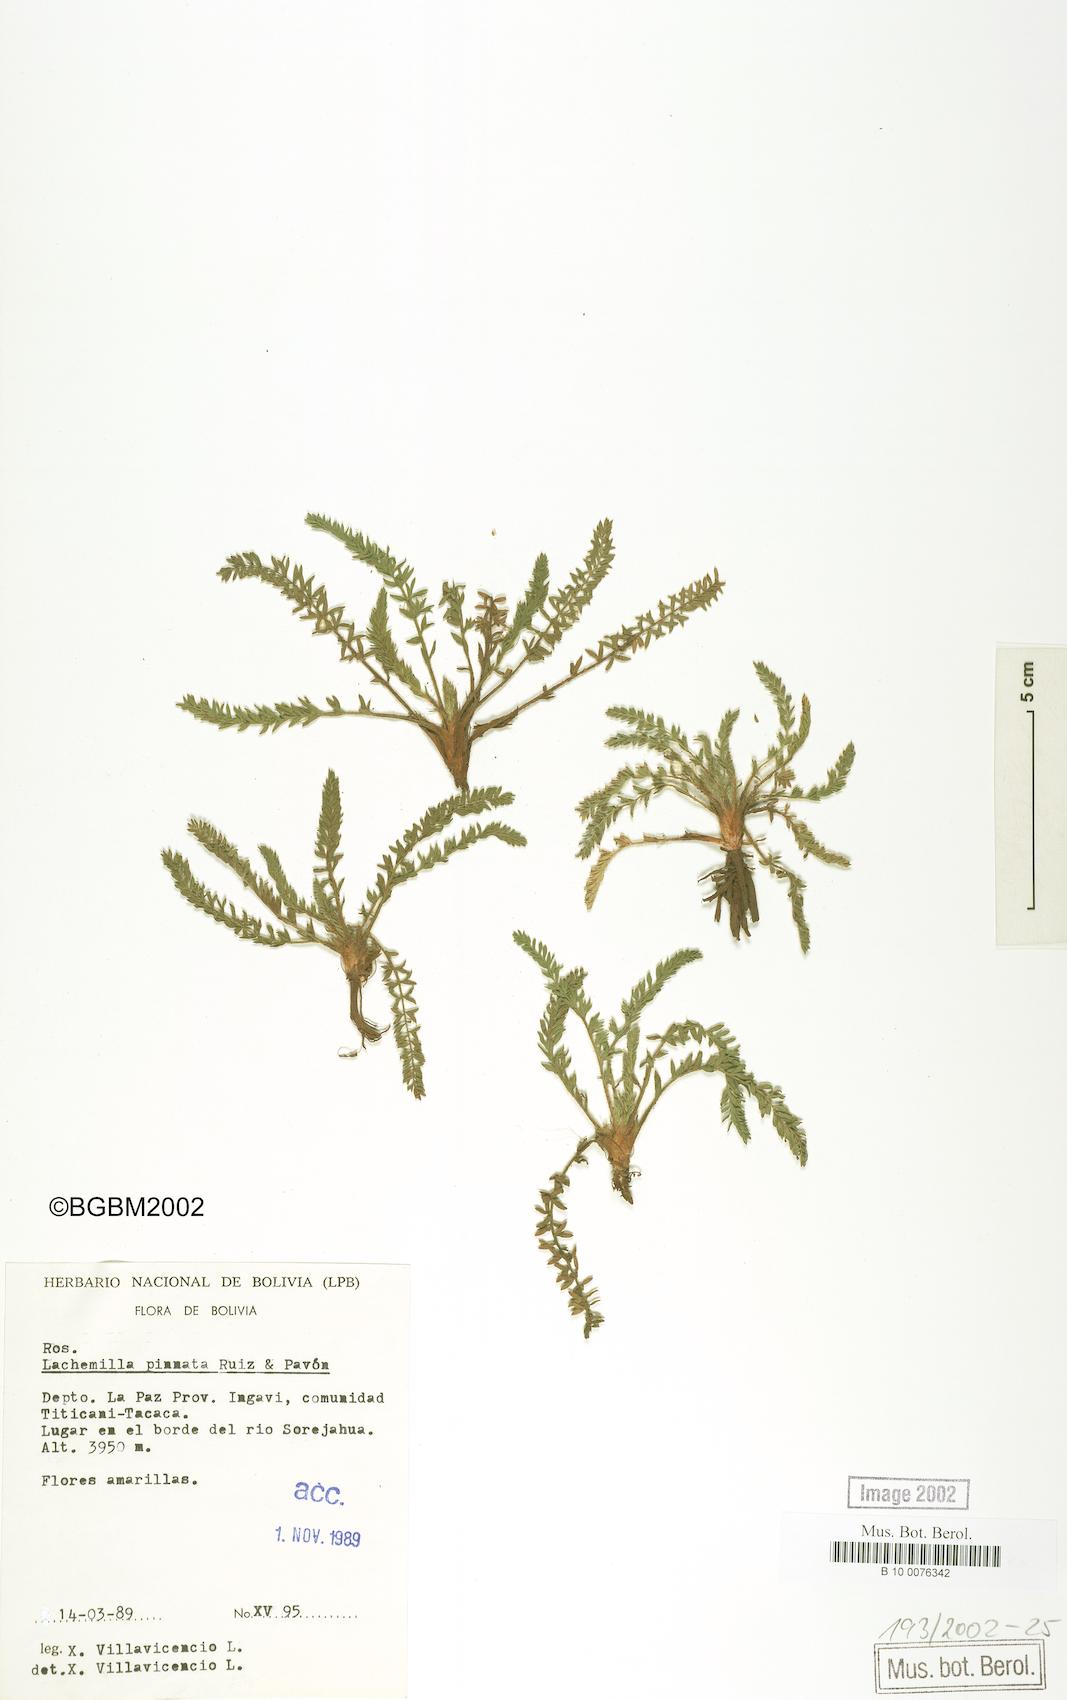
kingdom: Plantae
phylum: Tracheophyta
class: Magnoliopsida
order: Rosales
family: Rosaceae
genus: Lachemilla
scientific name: Lachemilla pinnata
